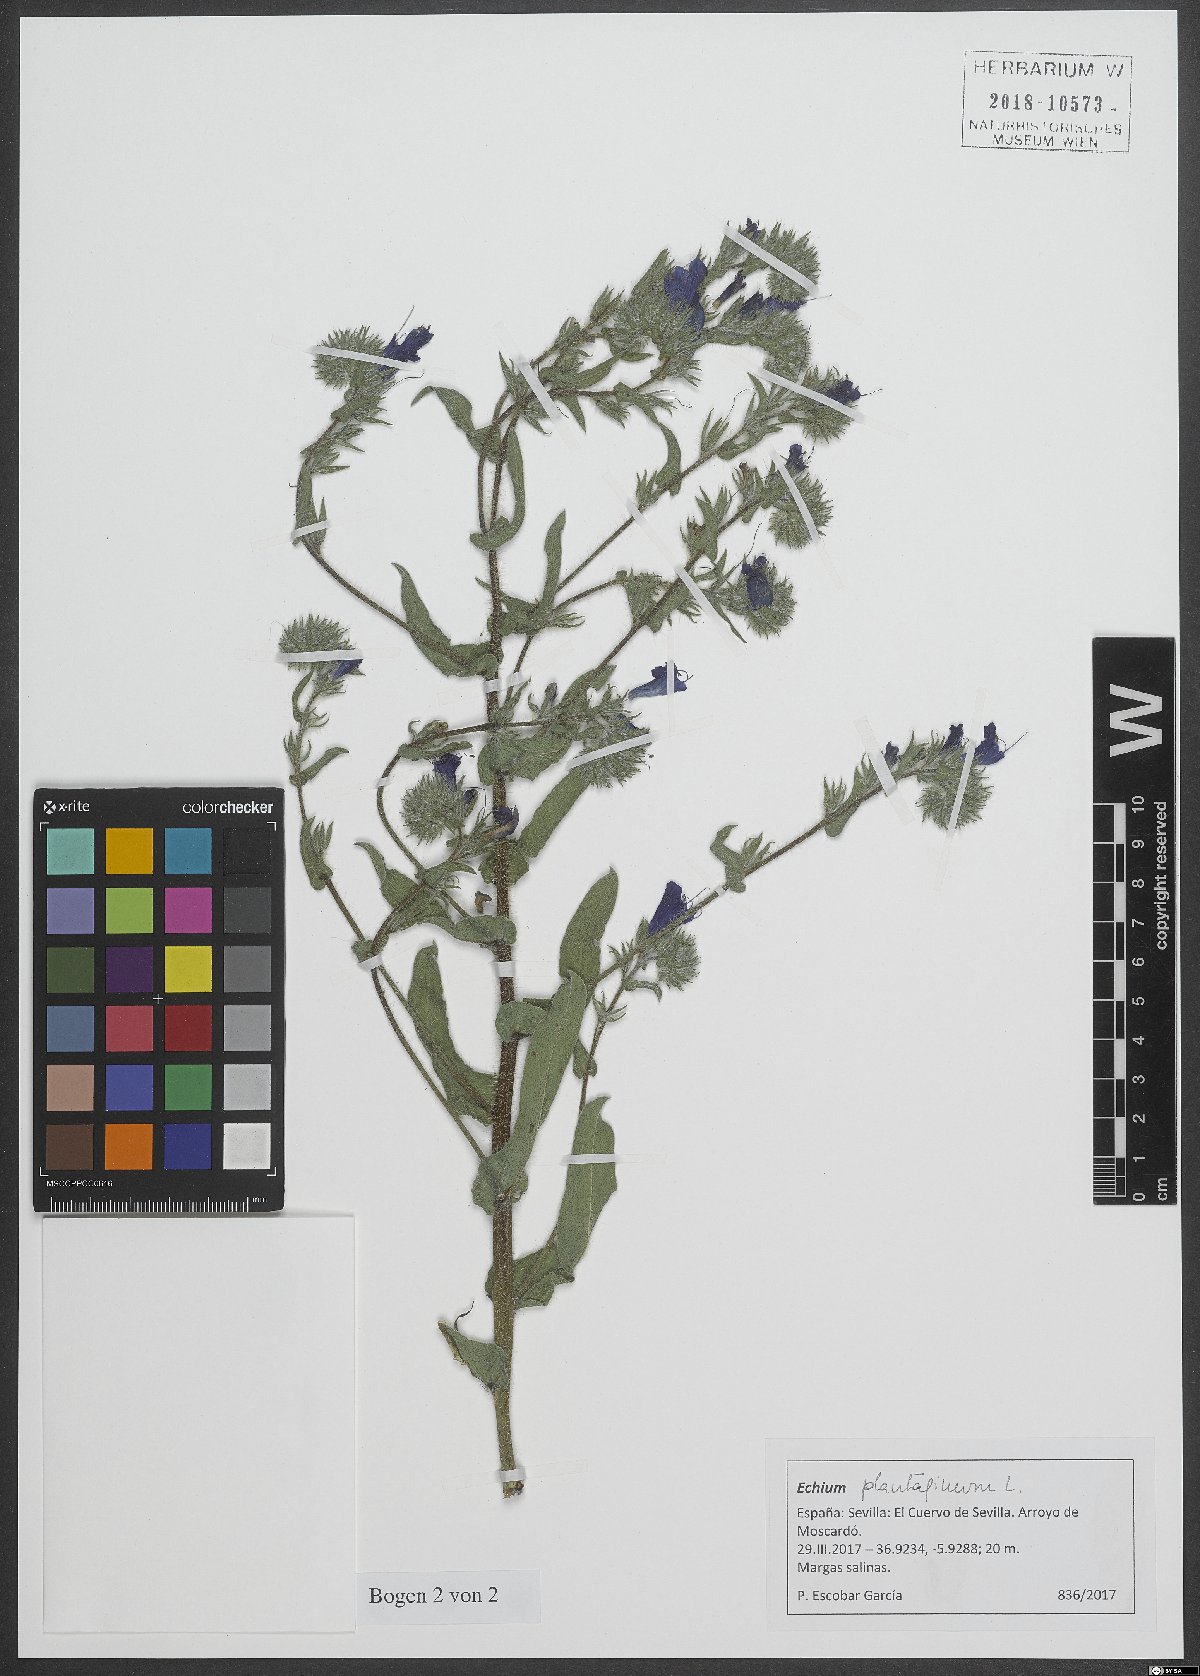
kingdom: Plantae
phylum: Tracheophyta
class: Magnoliopsida
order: Boraginales
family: Boraginaceae
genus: Echium
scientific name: Echium plantagineum
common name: Purple viper's-bugloss
